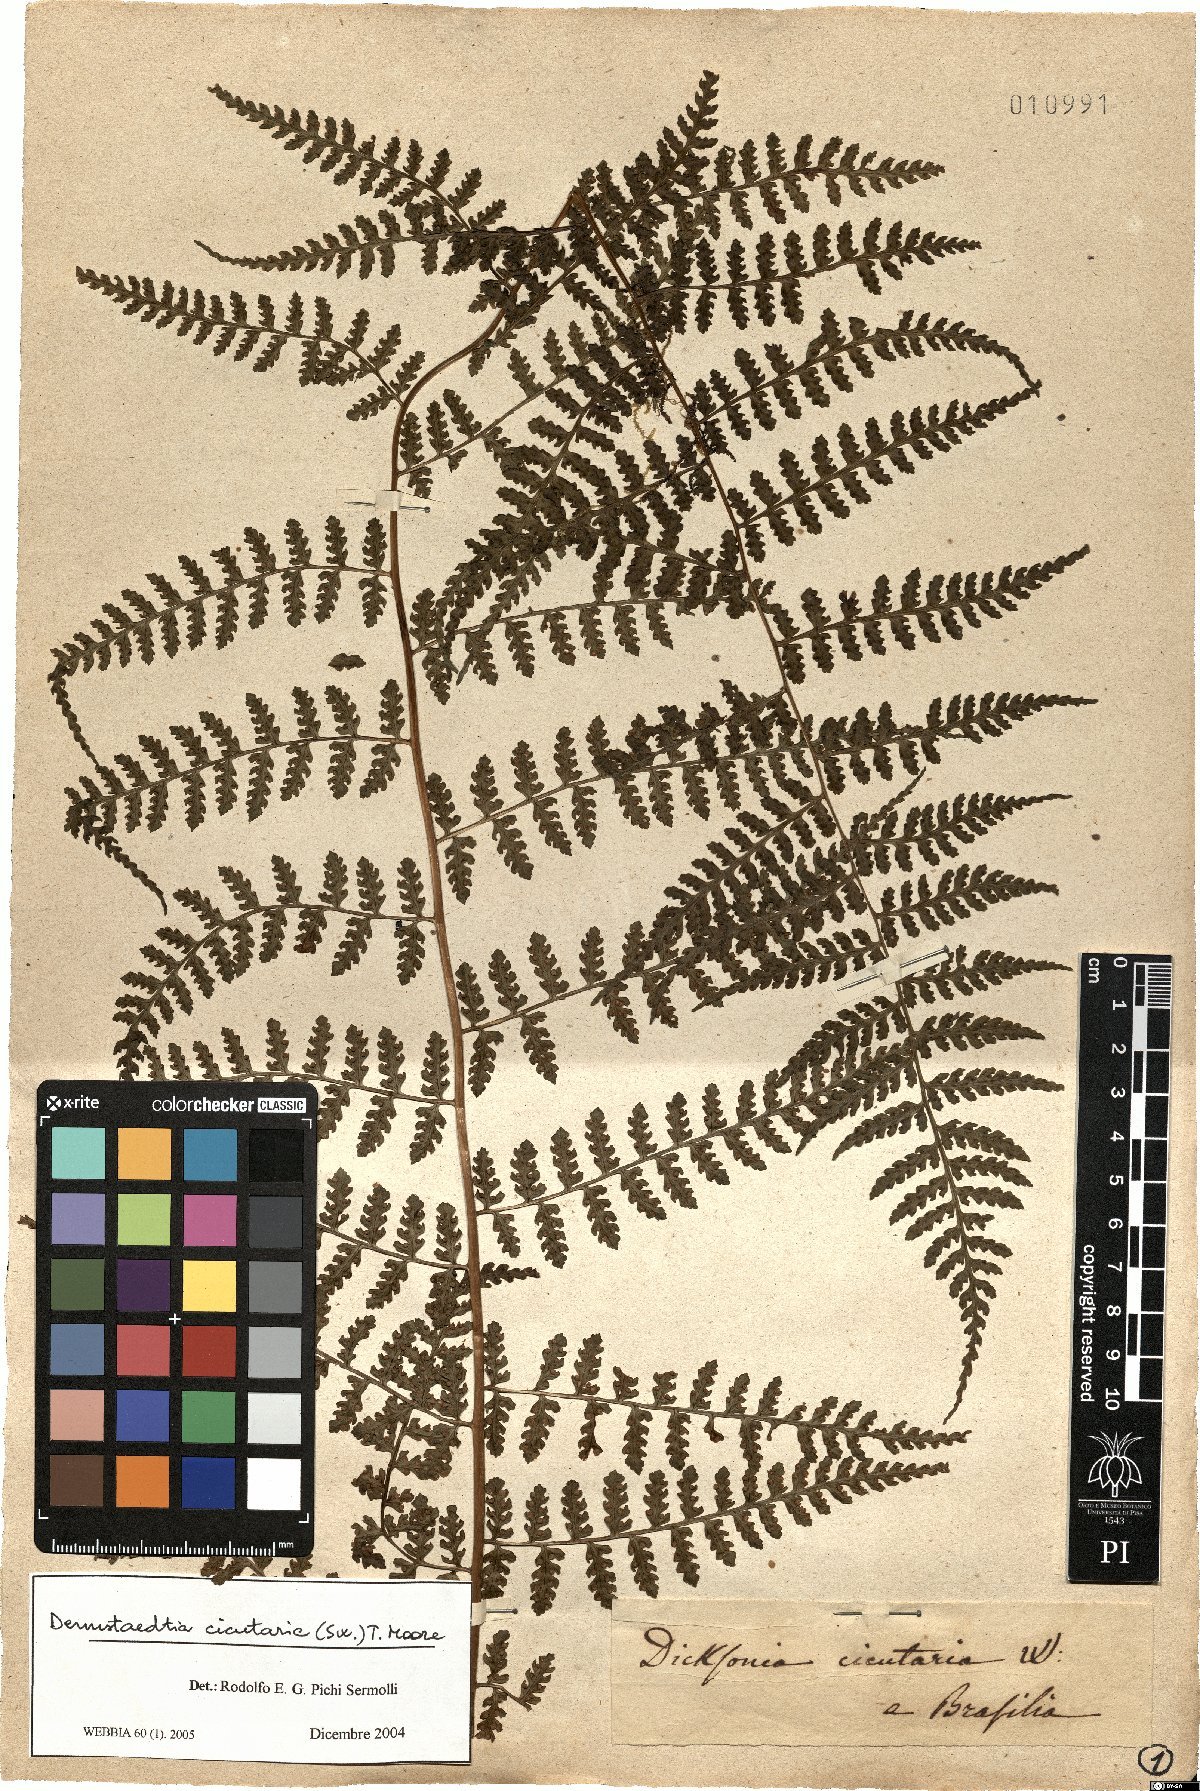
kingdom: Plantae
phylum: Tracheophyta
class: Polypodiopsida
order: Polypodiales
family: Dennstaedtiaceae
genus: Dennstaedtia
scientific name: Dennstaedtia cicutaria
